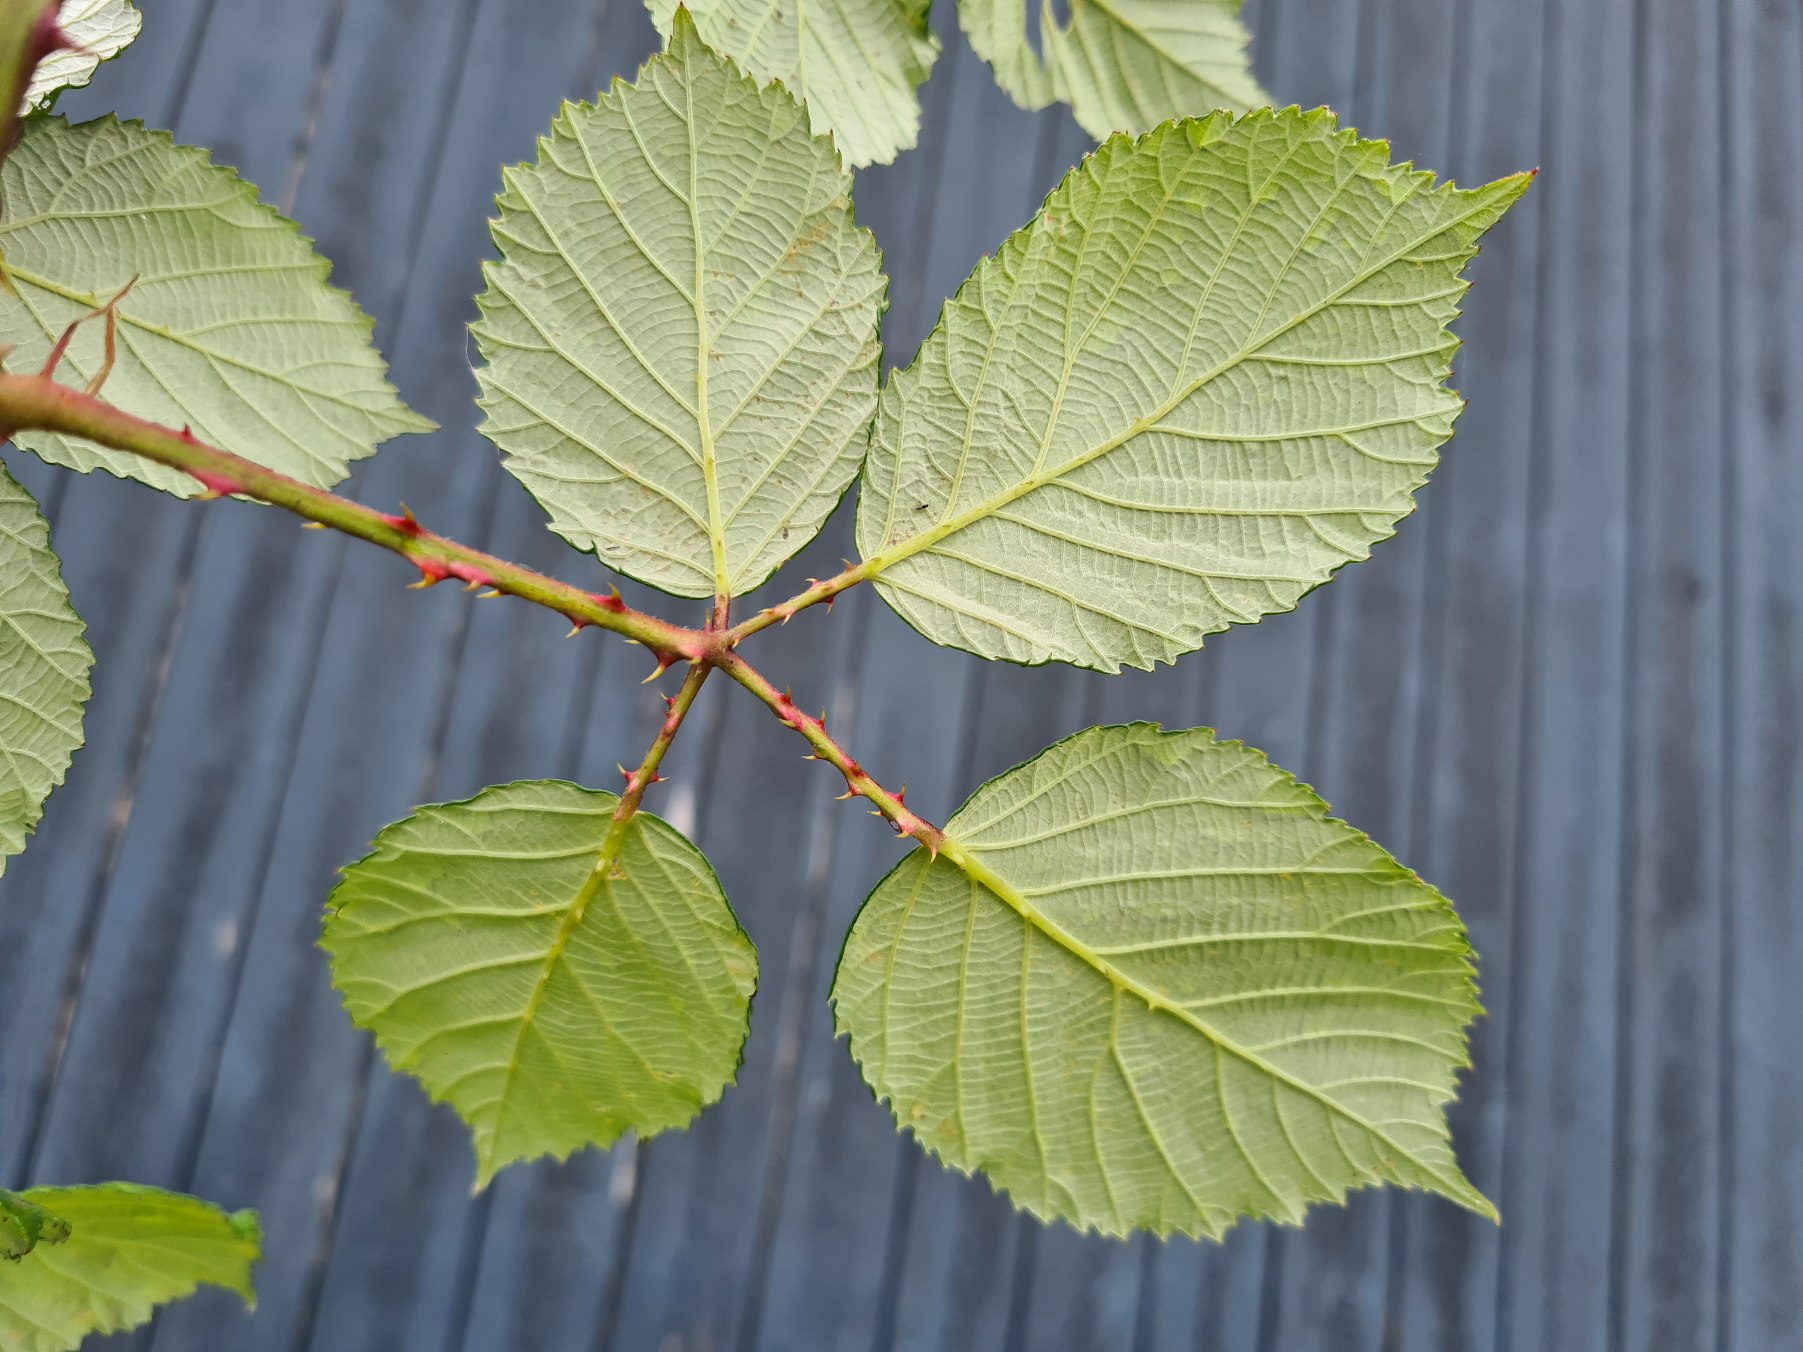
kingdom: Plantae
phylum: Tracheophyta
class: Magnoliopsida
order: Rosales
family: Rosaceae
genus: Rubus
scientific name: Rubus armeniacus
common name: Armensk brombær
